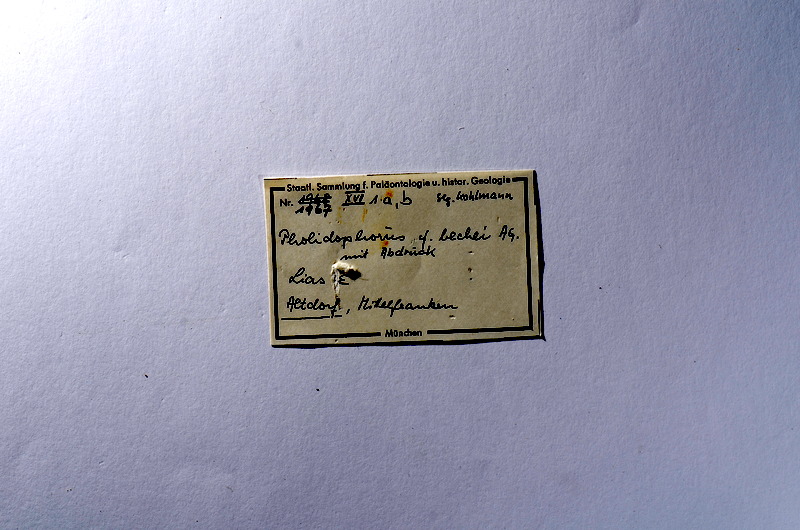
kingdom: Animalia
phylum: Chordata
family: Dorsetichthyidae
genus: Dorsetichthys
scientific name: Dorsetichthys bechei
